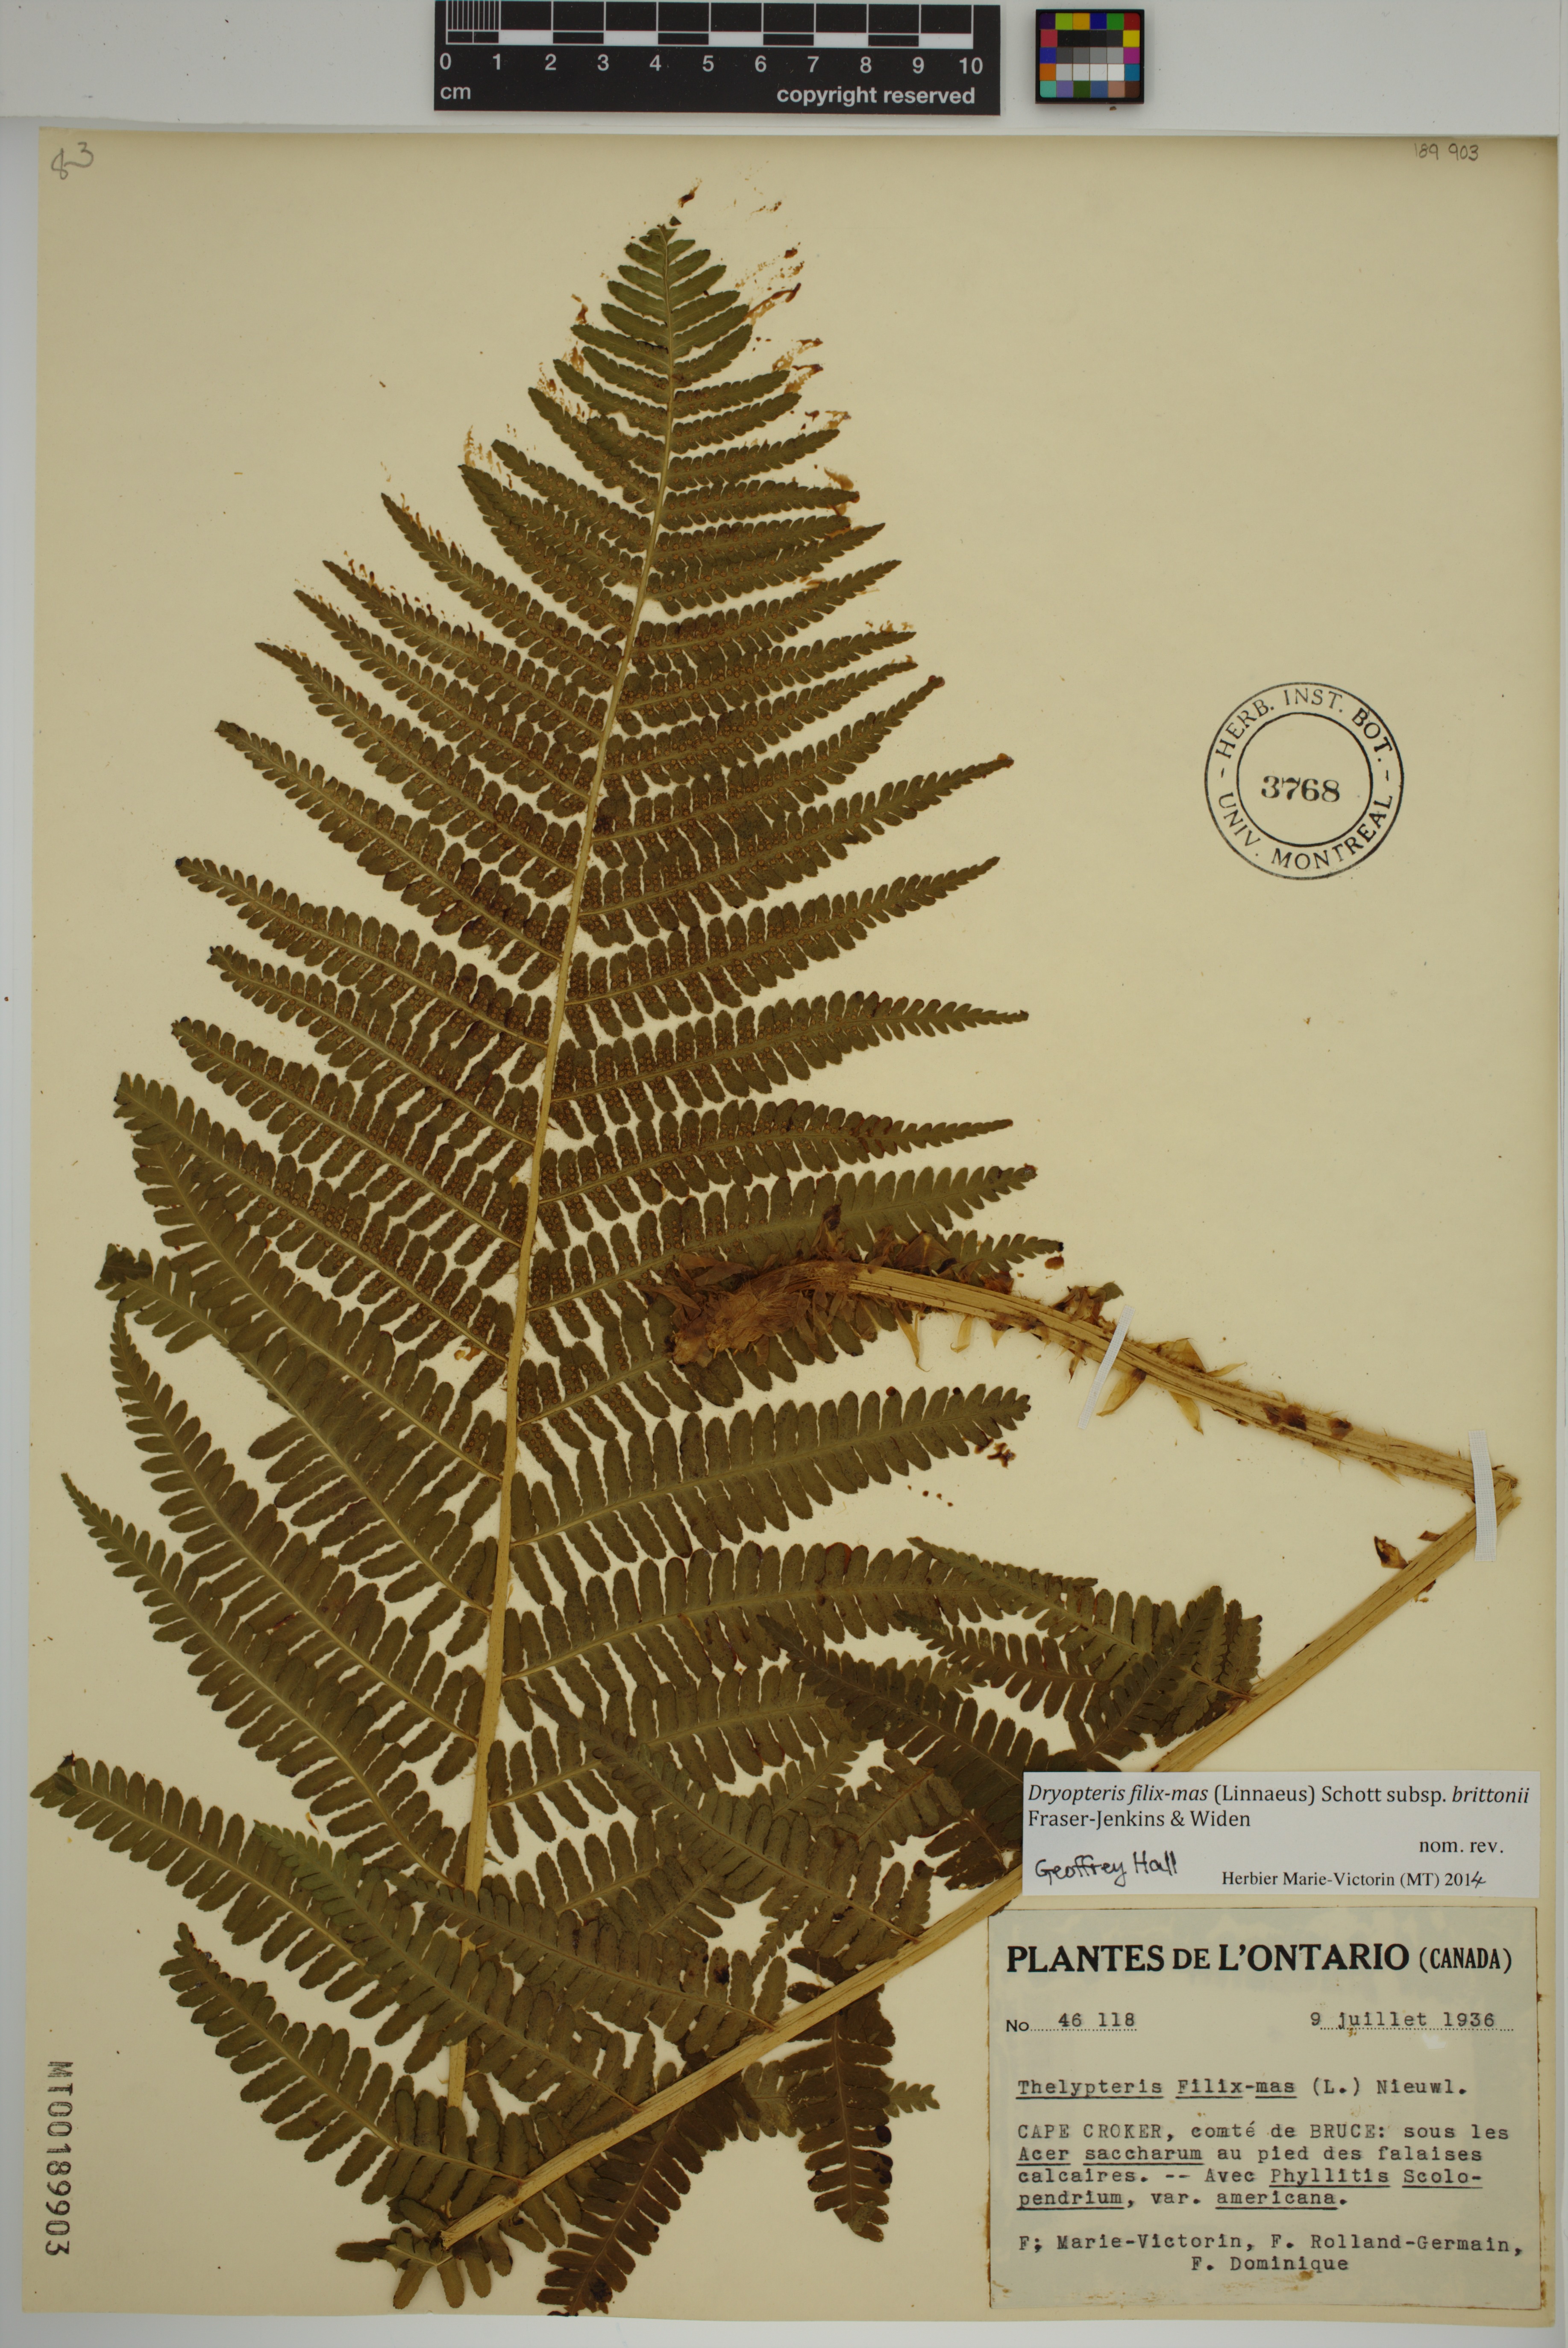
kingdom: Plantae
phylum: Tracheophyta
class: Polypodiopsida
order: Polypodiales
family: Dryopteridaceae
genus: Dryopteris
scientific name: Dryopteris filix-mas
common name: Male fern
